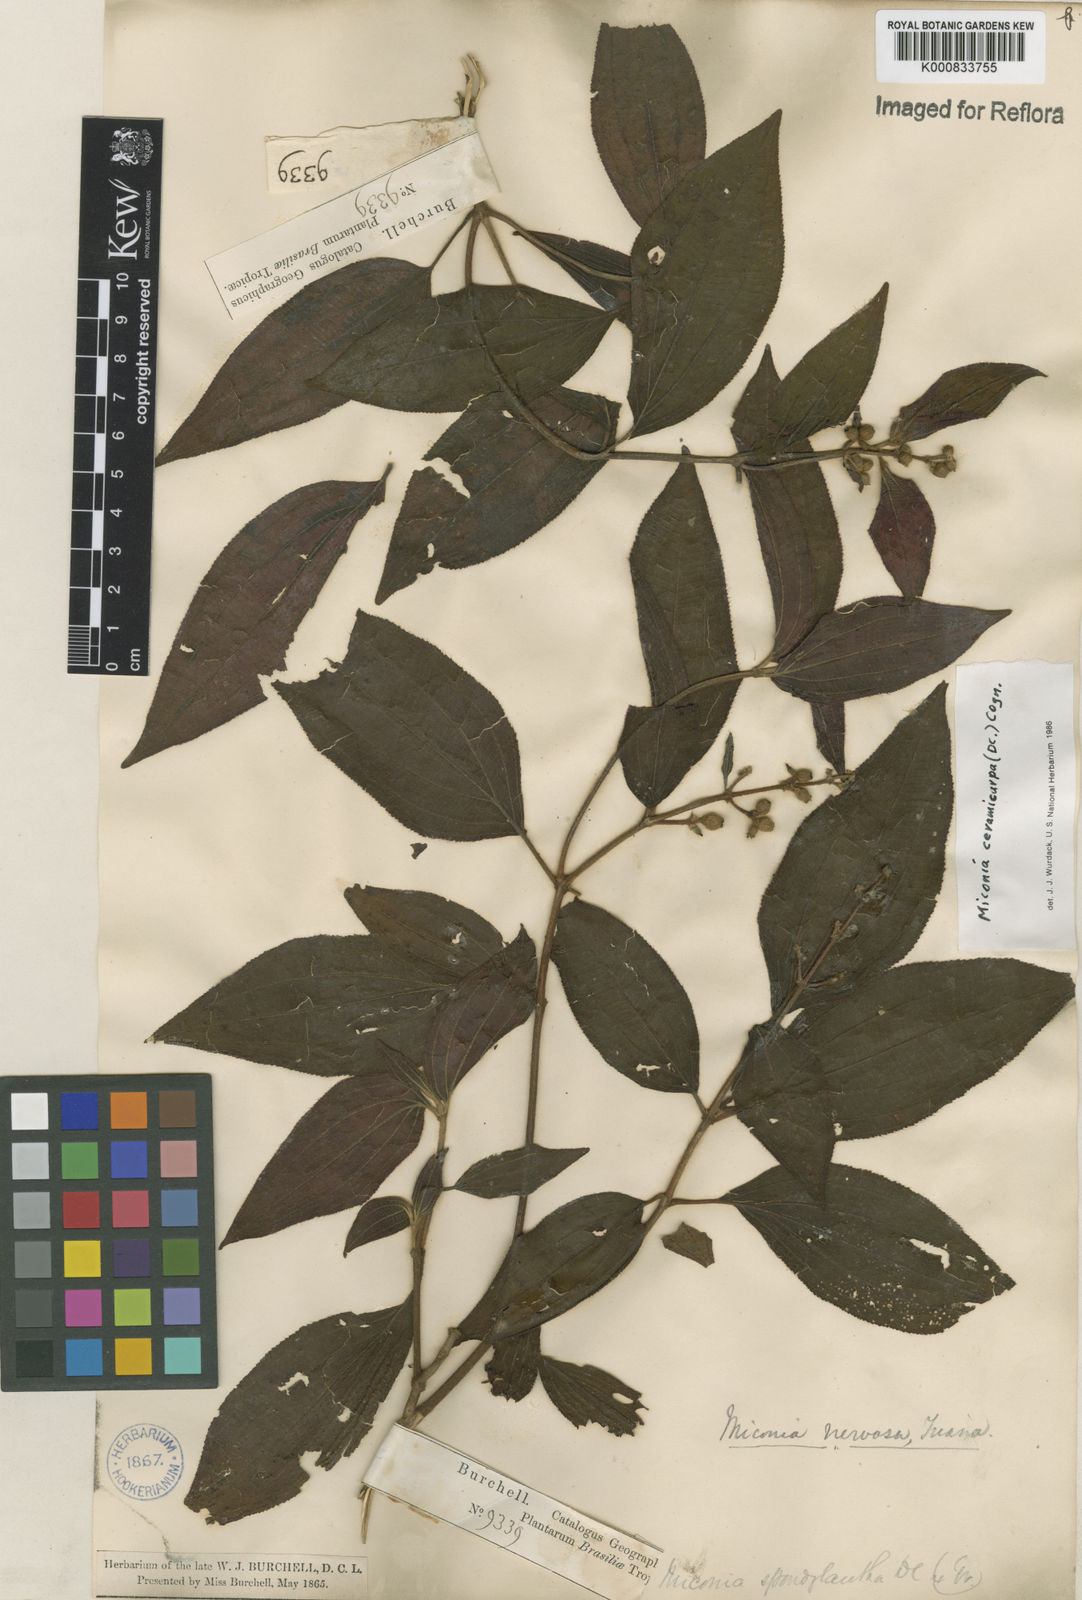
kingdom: Plantae
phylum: Tracheophyta
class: Magnoliopsida
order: Myrtales
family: Melastomataceae
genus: Miconia
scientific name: Miconia ceramicarpa
